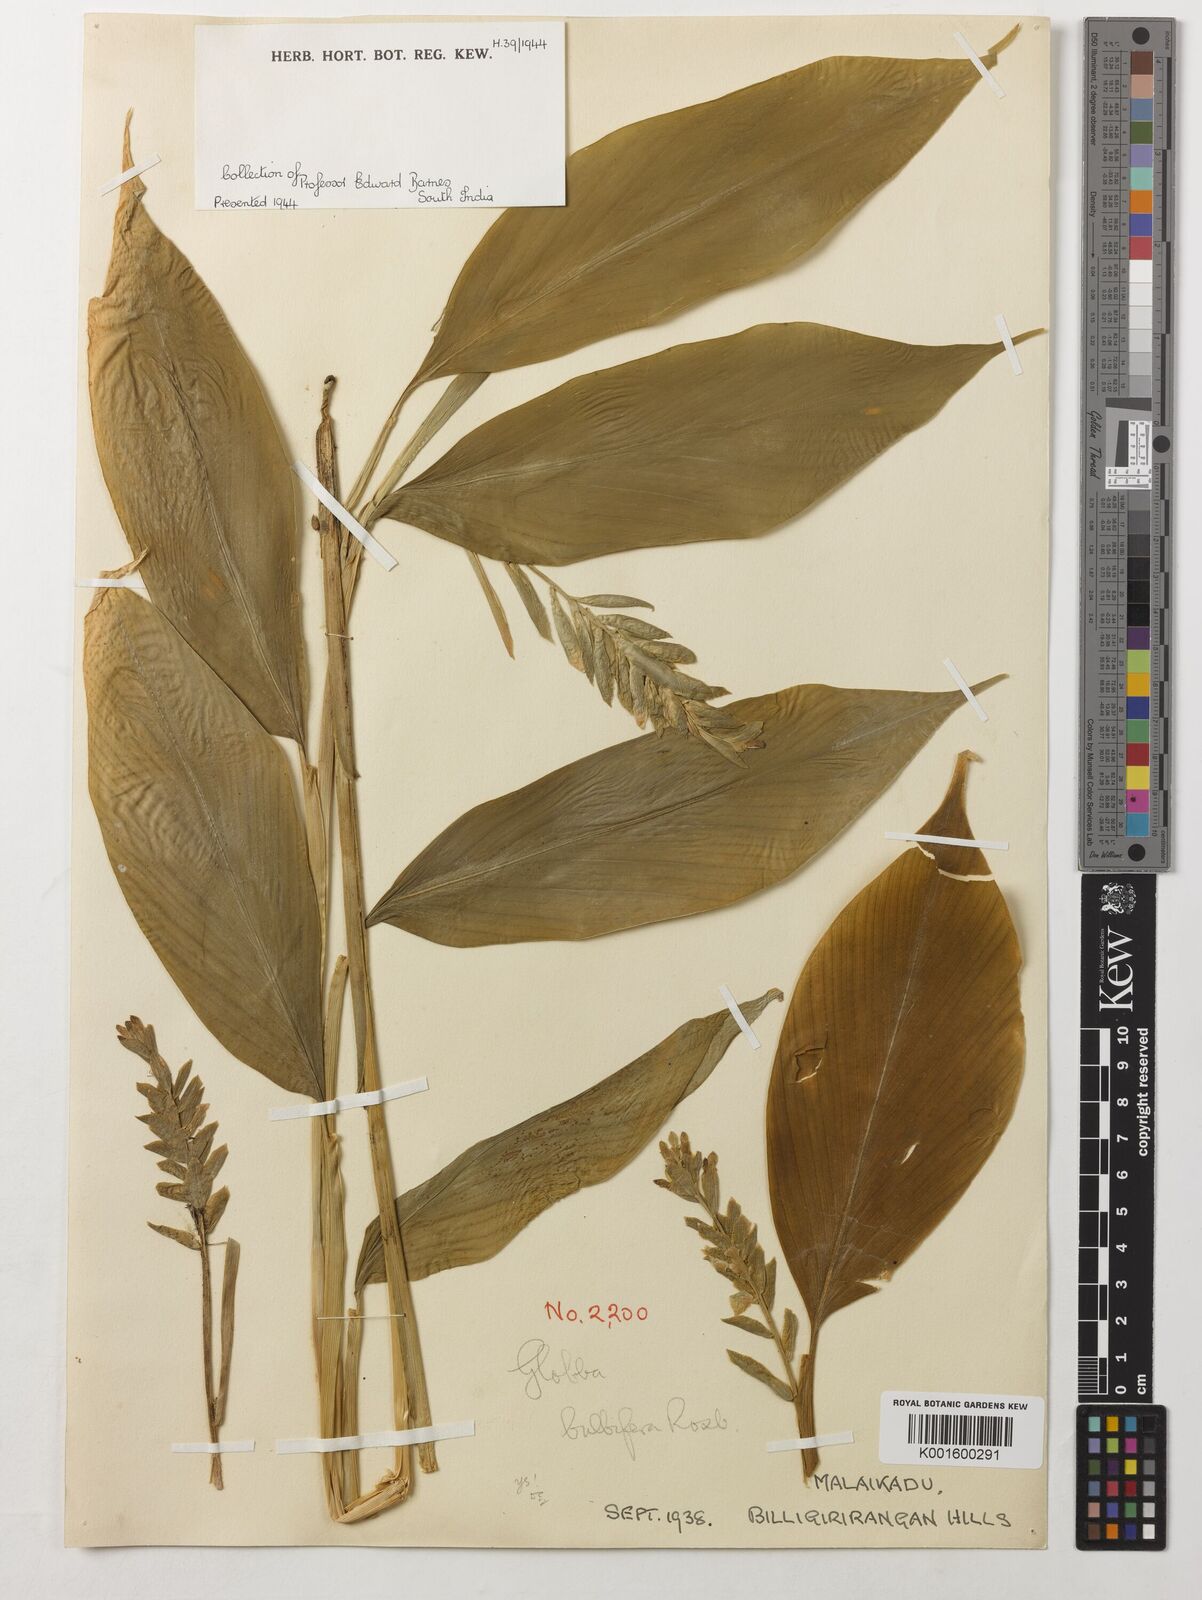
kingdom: Plantae
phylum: Tracheophyta
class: Liliopsida
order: Zingiberales
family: Zingiberaceae
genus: Globba
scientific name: Globba marantina
